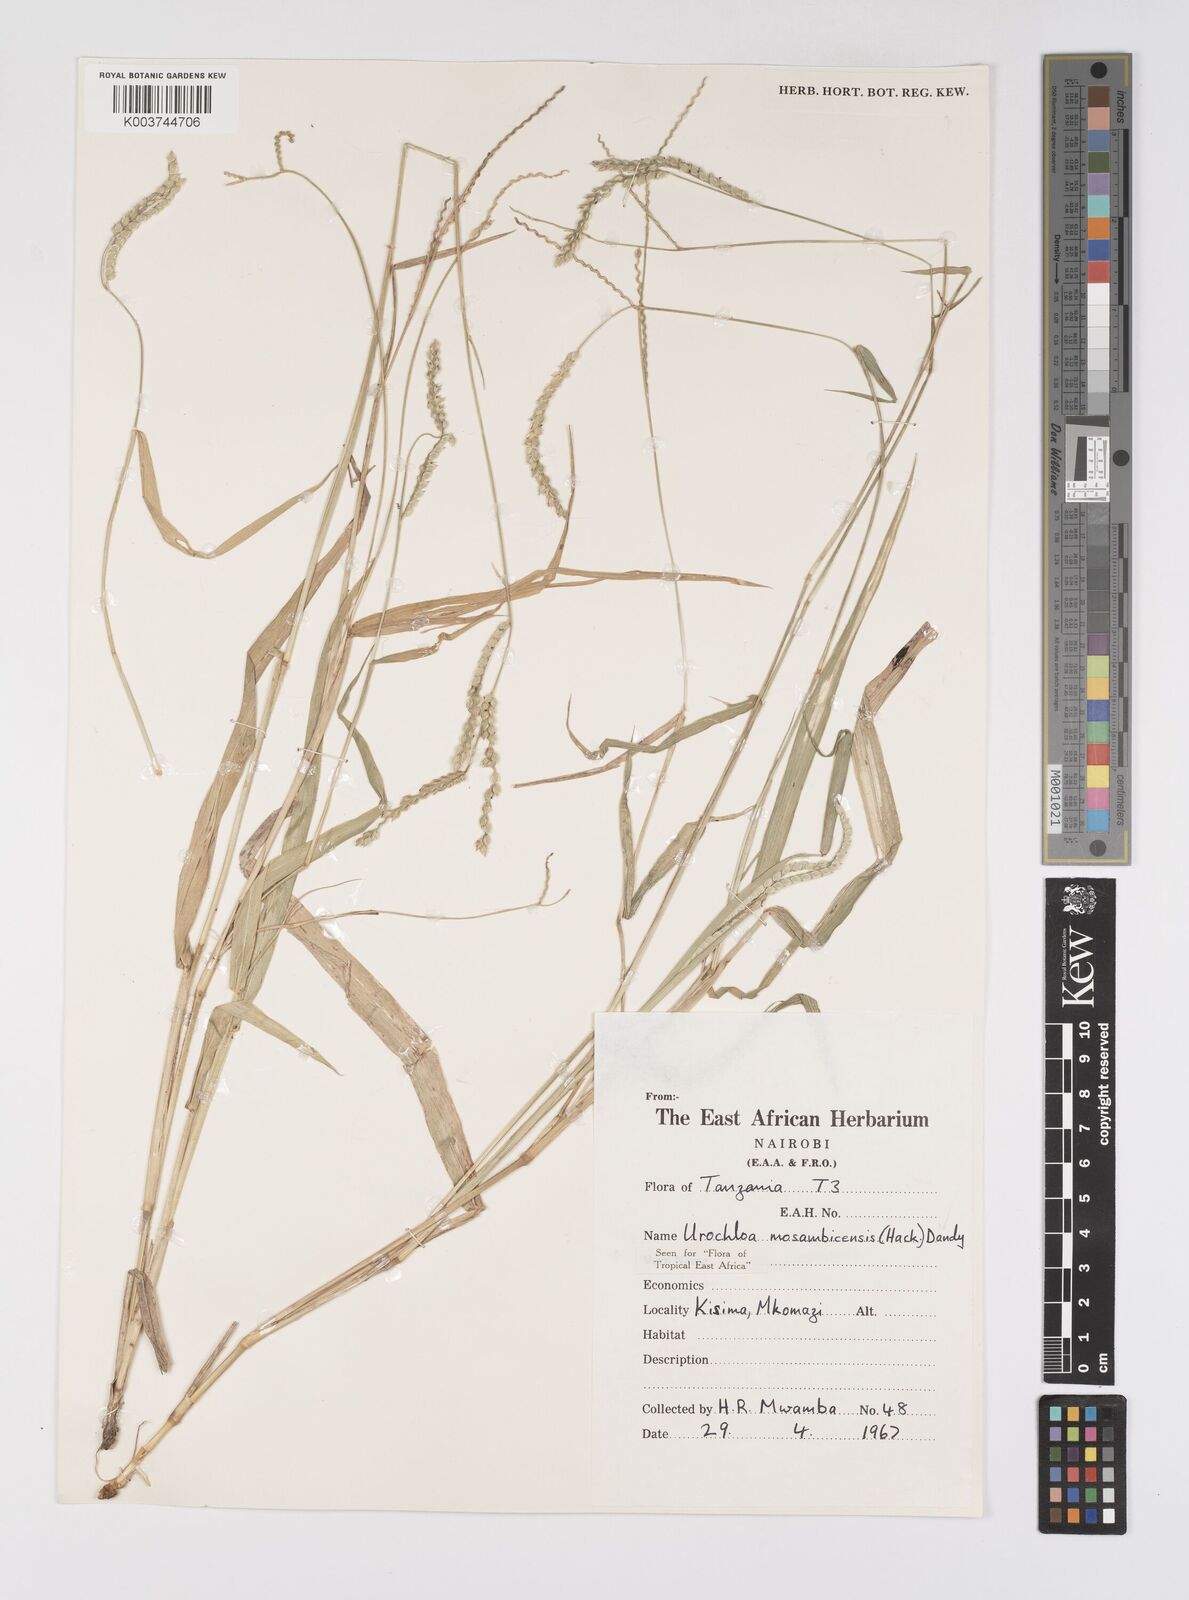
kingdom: Plantae
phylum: Tracheophyta
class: Liliopsida
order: Poales
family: Poaceae
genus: Urochloa
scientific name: Urochloa trichopus
